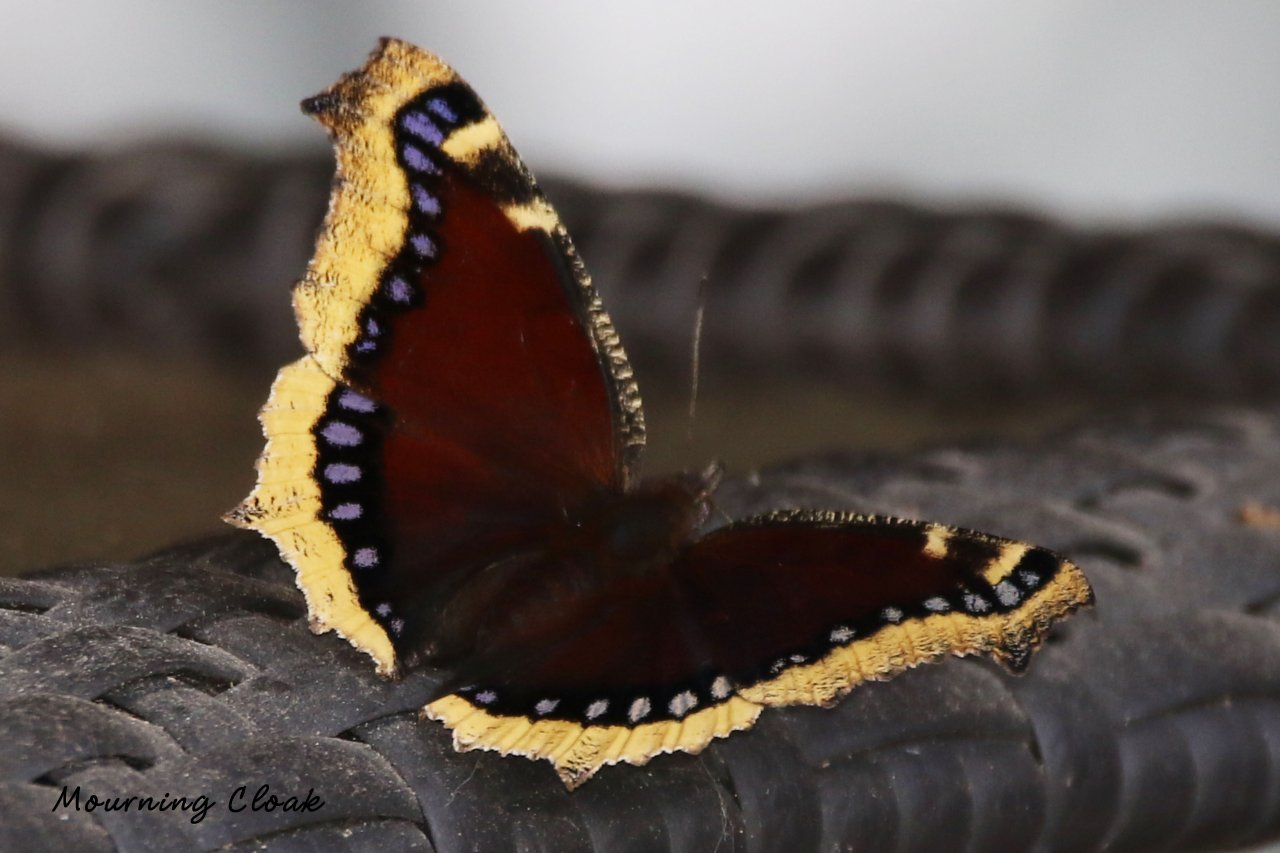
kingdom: Animalia
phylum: Arthropoda
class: Insecta
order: Lepidoptera
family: Nymphalidae
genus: Nymphalis
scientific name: Nymphalis antiopa
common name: Mourning Cloak
